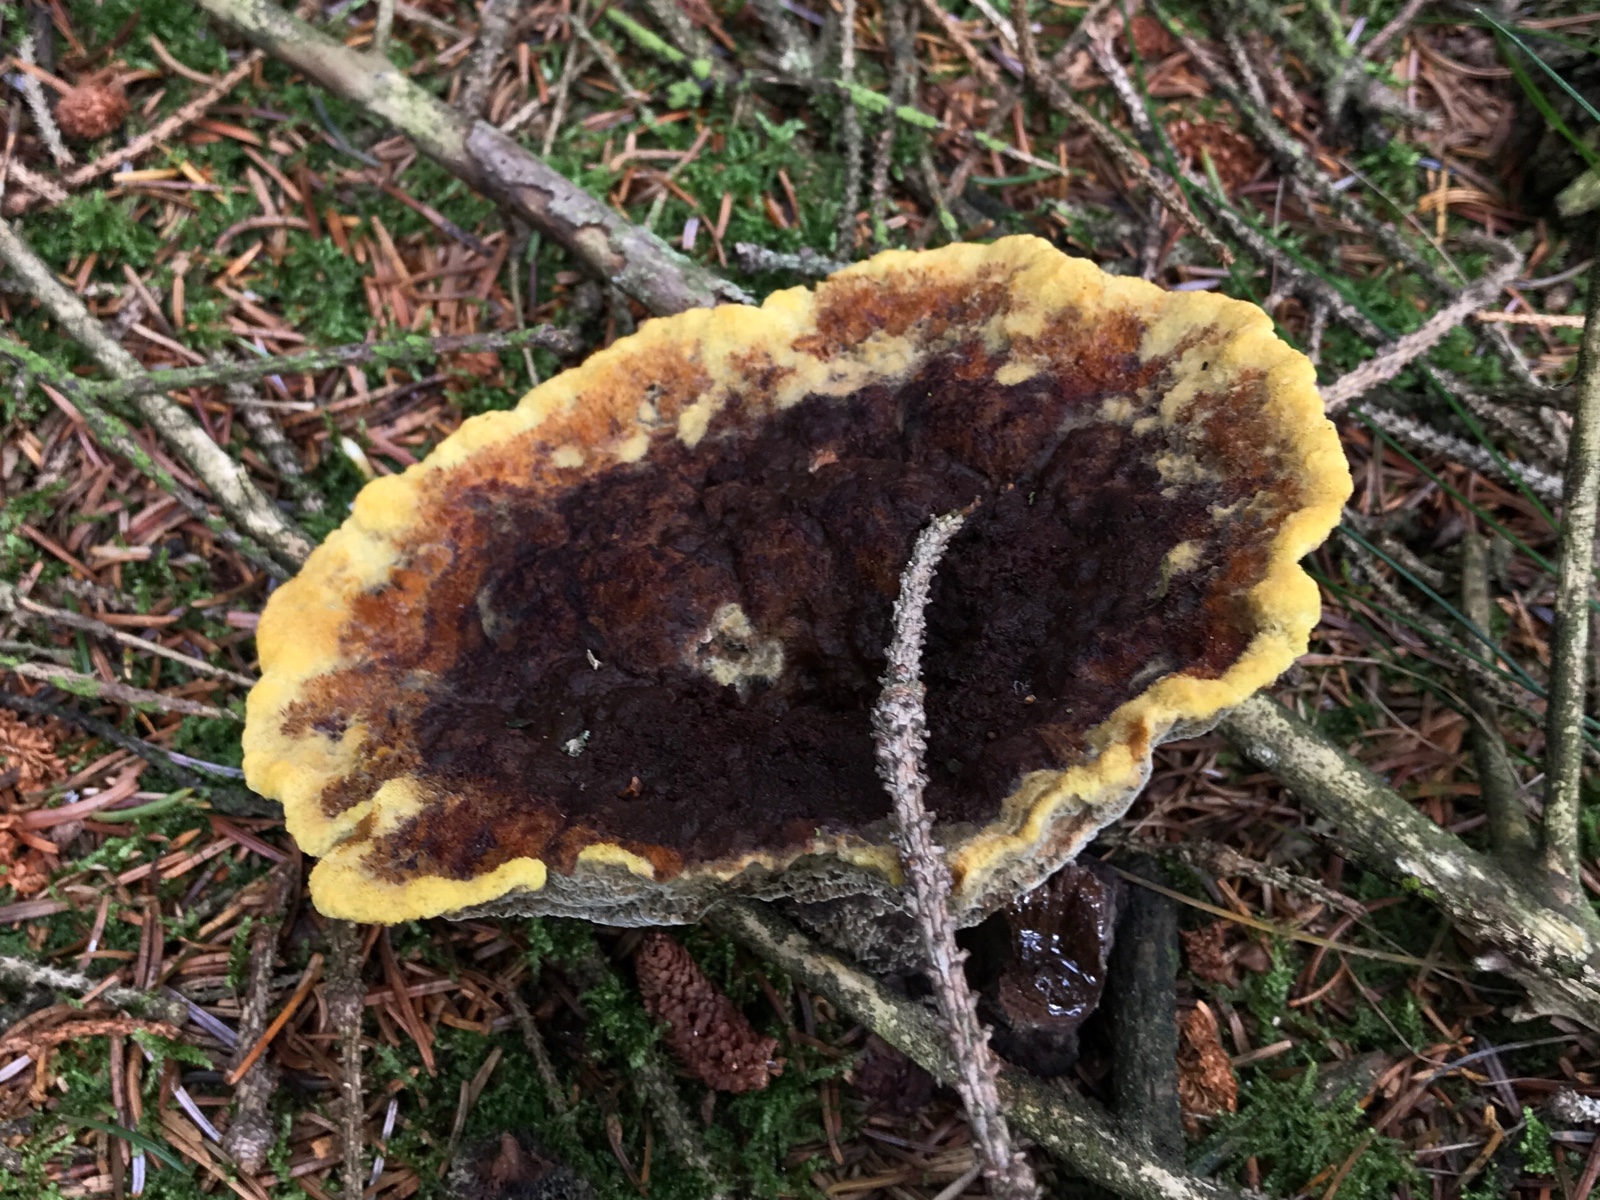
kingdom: Fungi
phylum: Basidiomycota
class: Agaricomycetes
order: Polyporales
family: Laetiporaceae
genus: Phaeolus
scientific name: Phaeolus schweinitzii
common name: brunporesvamp
